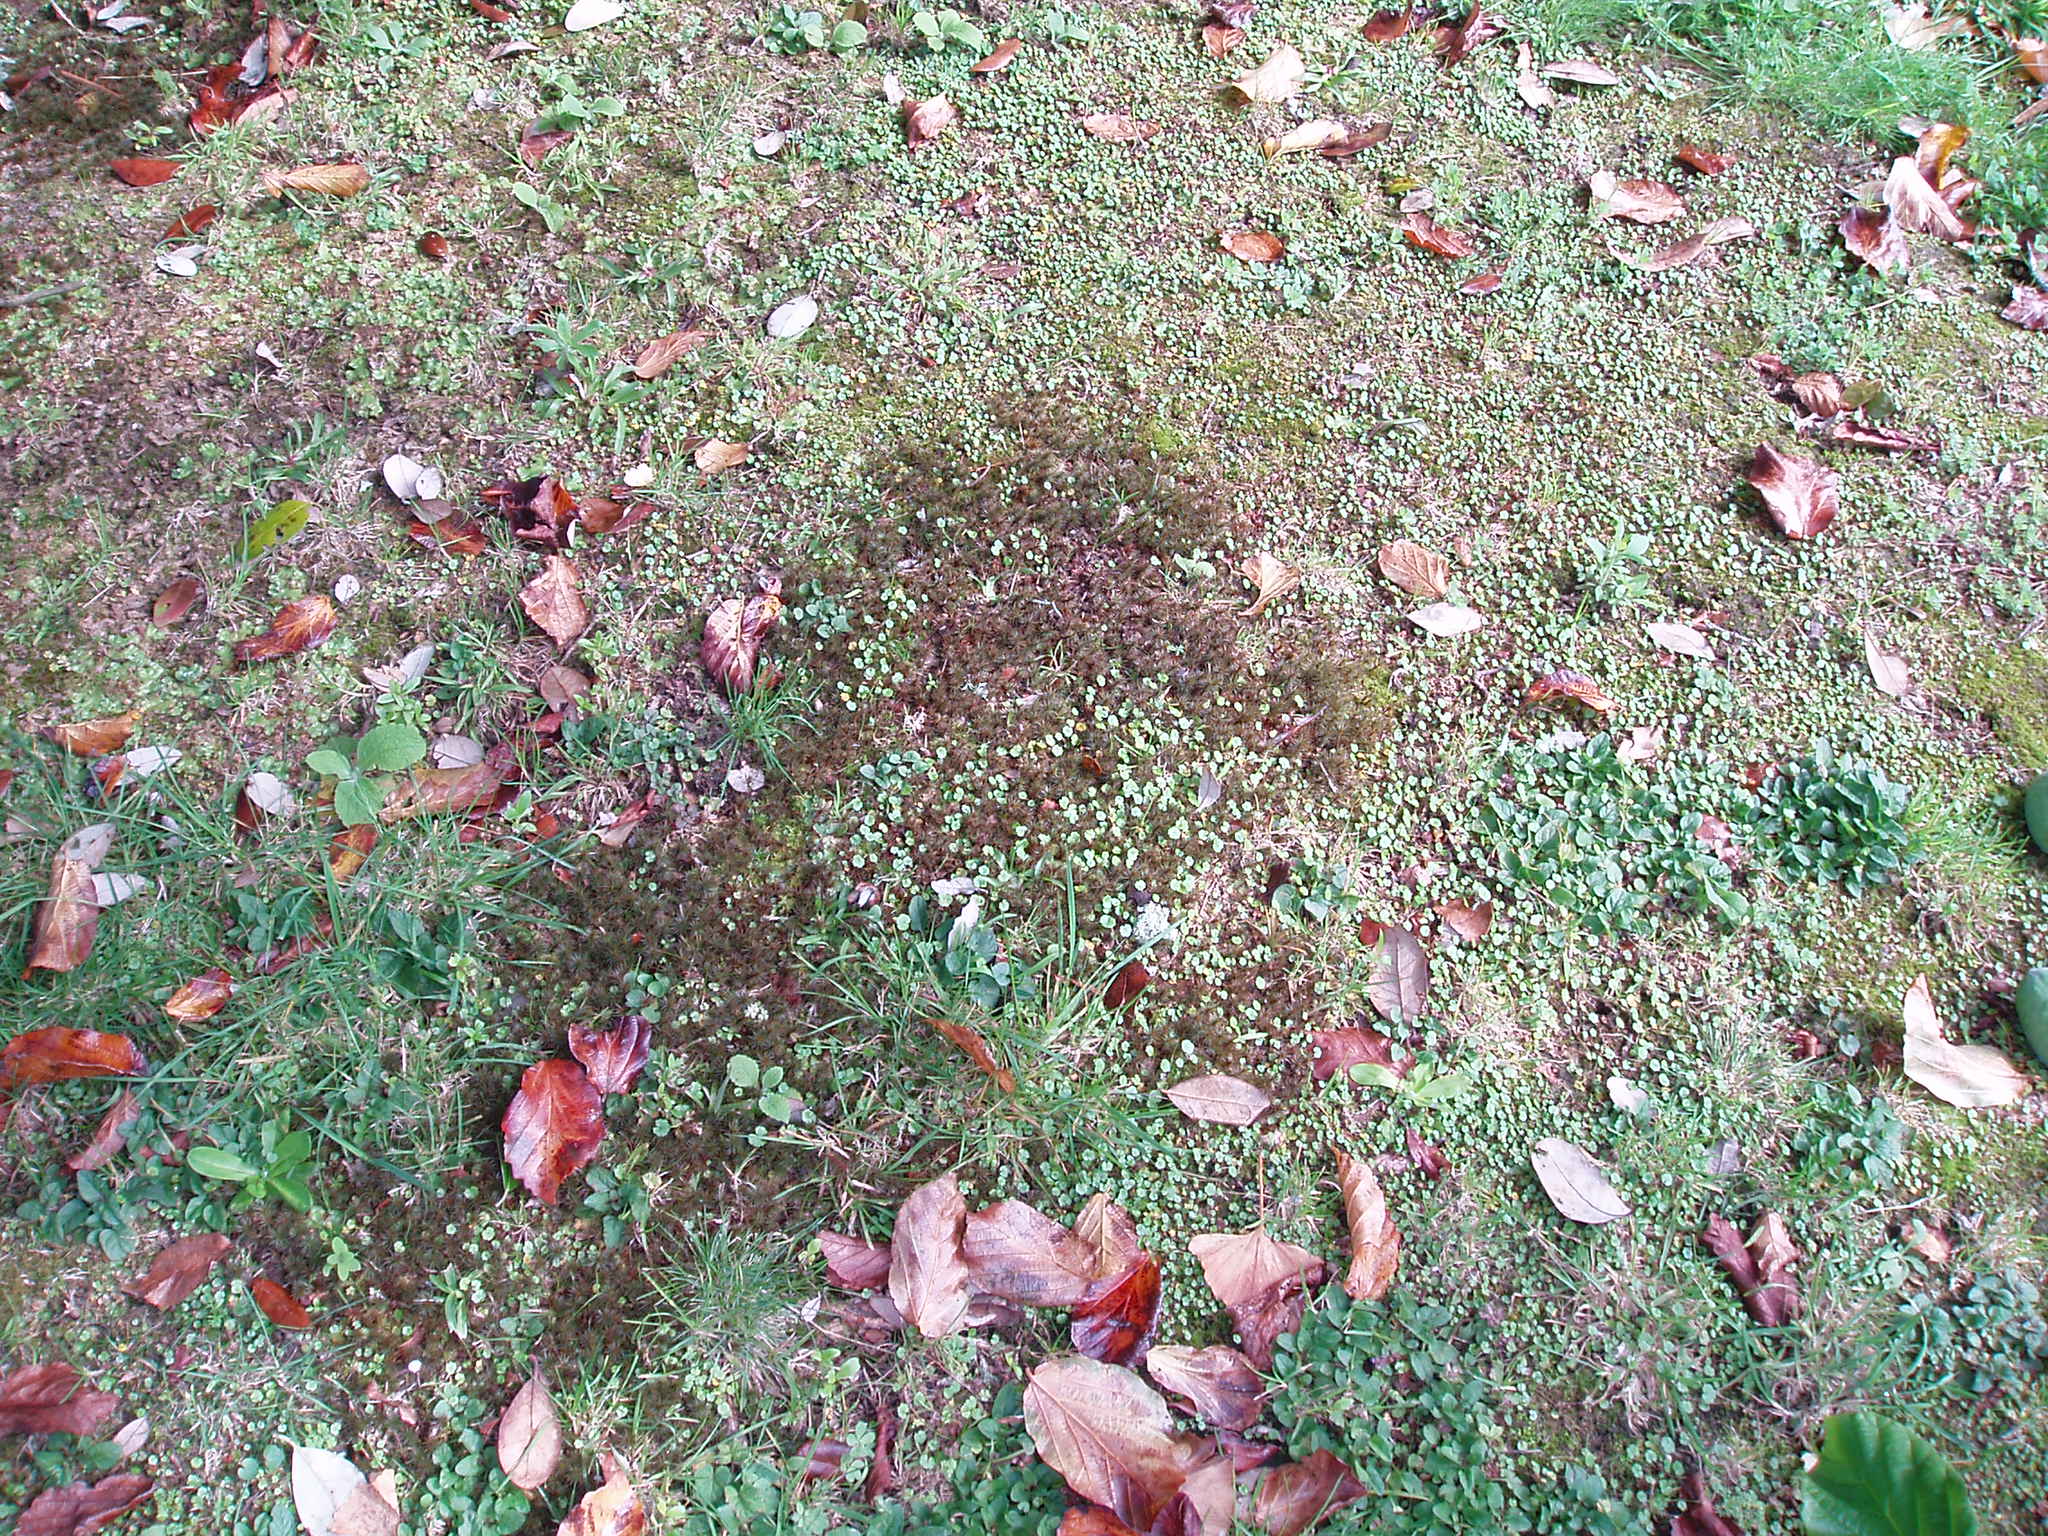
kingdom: Plantae
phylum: Bryophyta
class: Polytrichopsida
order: Polytrichales
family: Polytrichaceae
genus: Polytrichum
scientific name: Polytrichum juniperinum
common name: Juniper haircap moss
